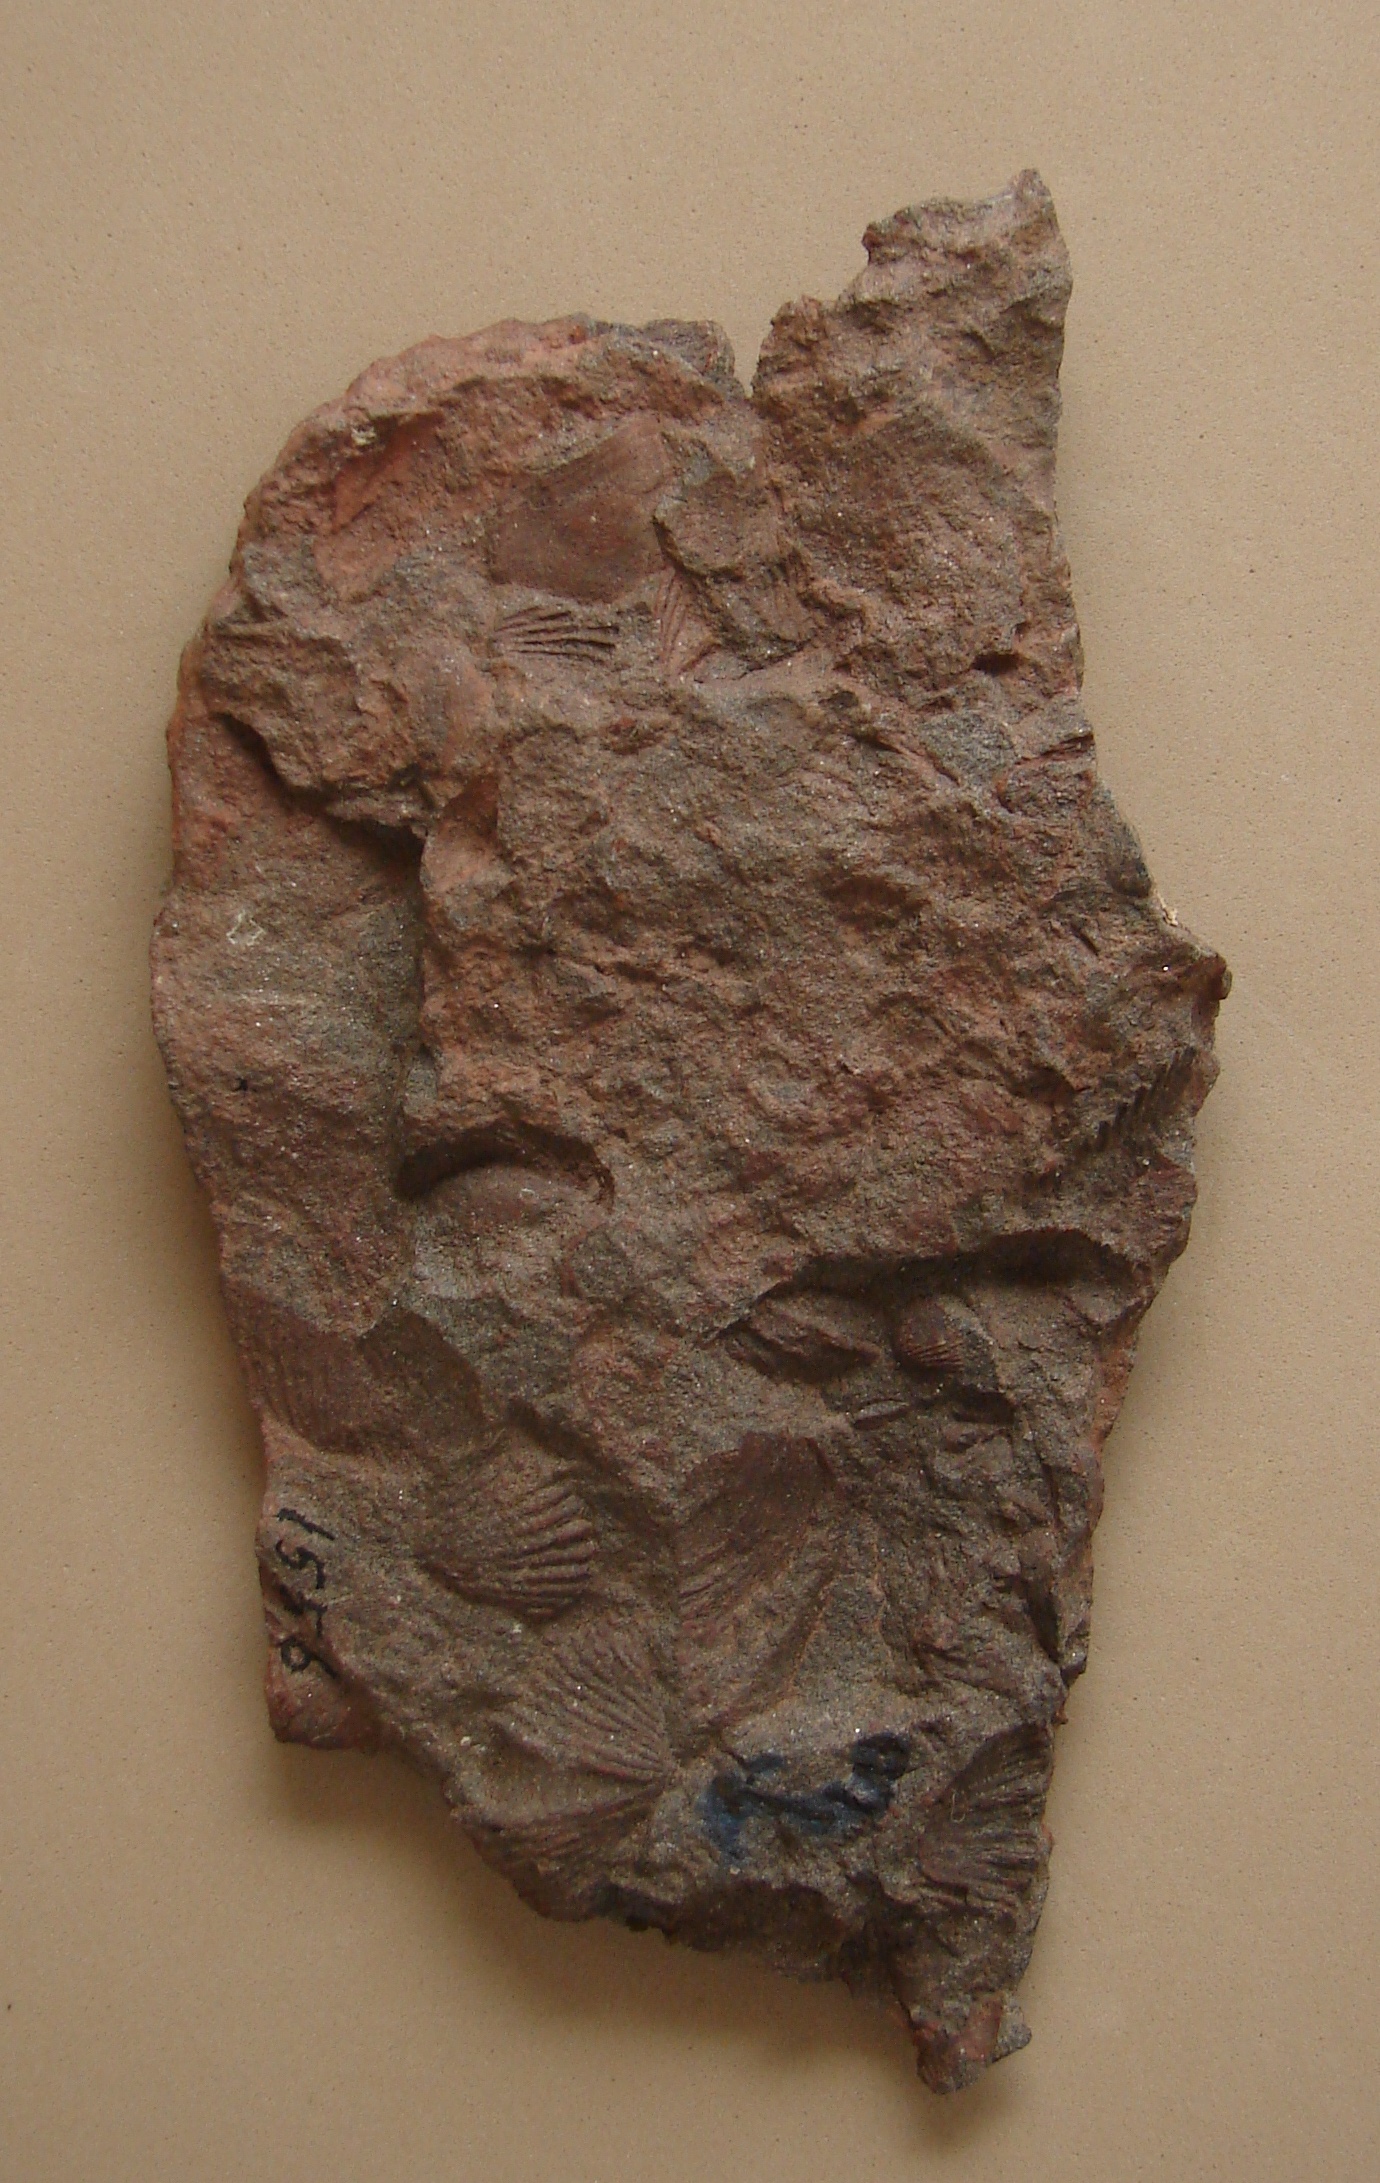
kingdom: Animalia
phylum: Mollusca
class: Bivalvia
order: Ostreida
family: Pterineidae
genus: Ptychopteria
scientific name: Ptychopteria
